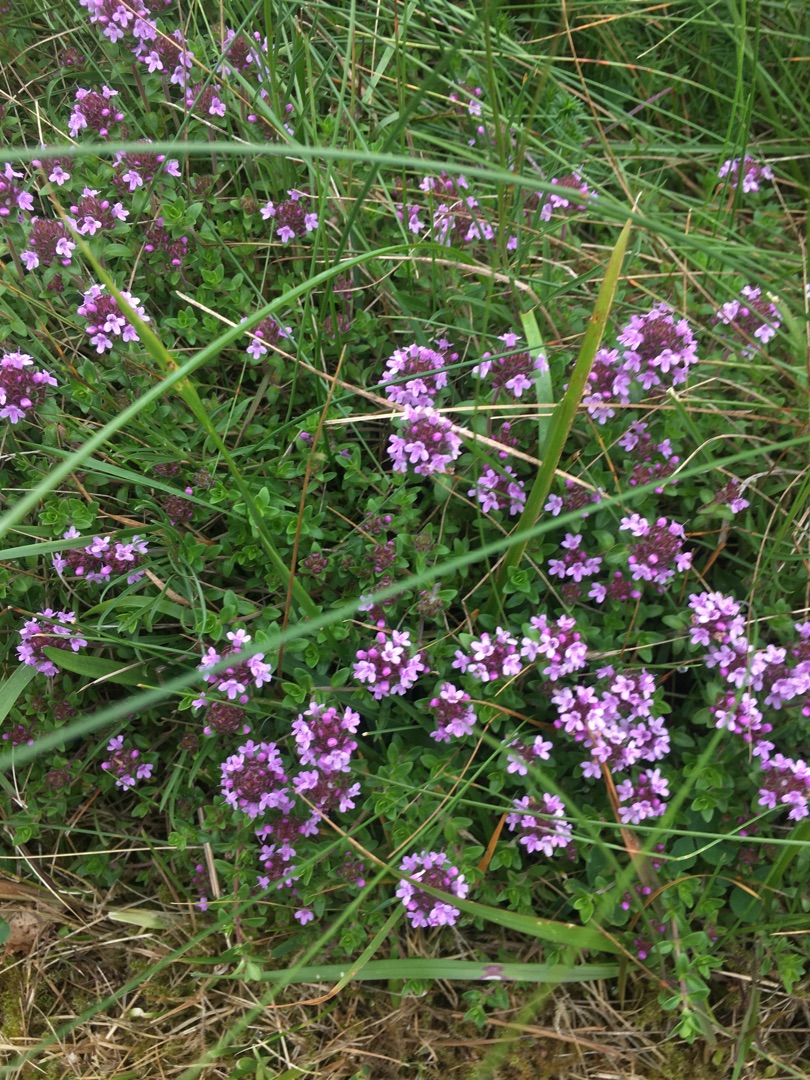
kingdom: Plantae
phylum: Tracheophyta
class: Magnoliopsida
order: Lamiales
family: Lamiaceae
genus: Thymus
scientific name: Thymus pulegioides
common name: Bredbladet timian
